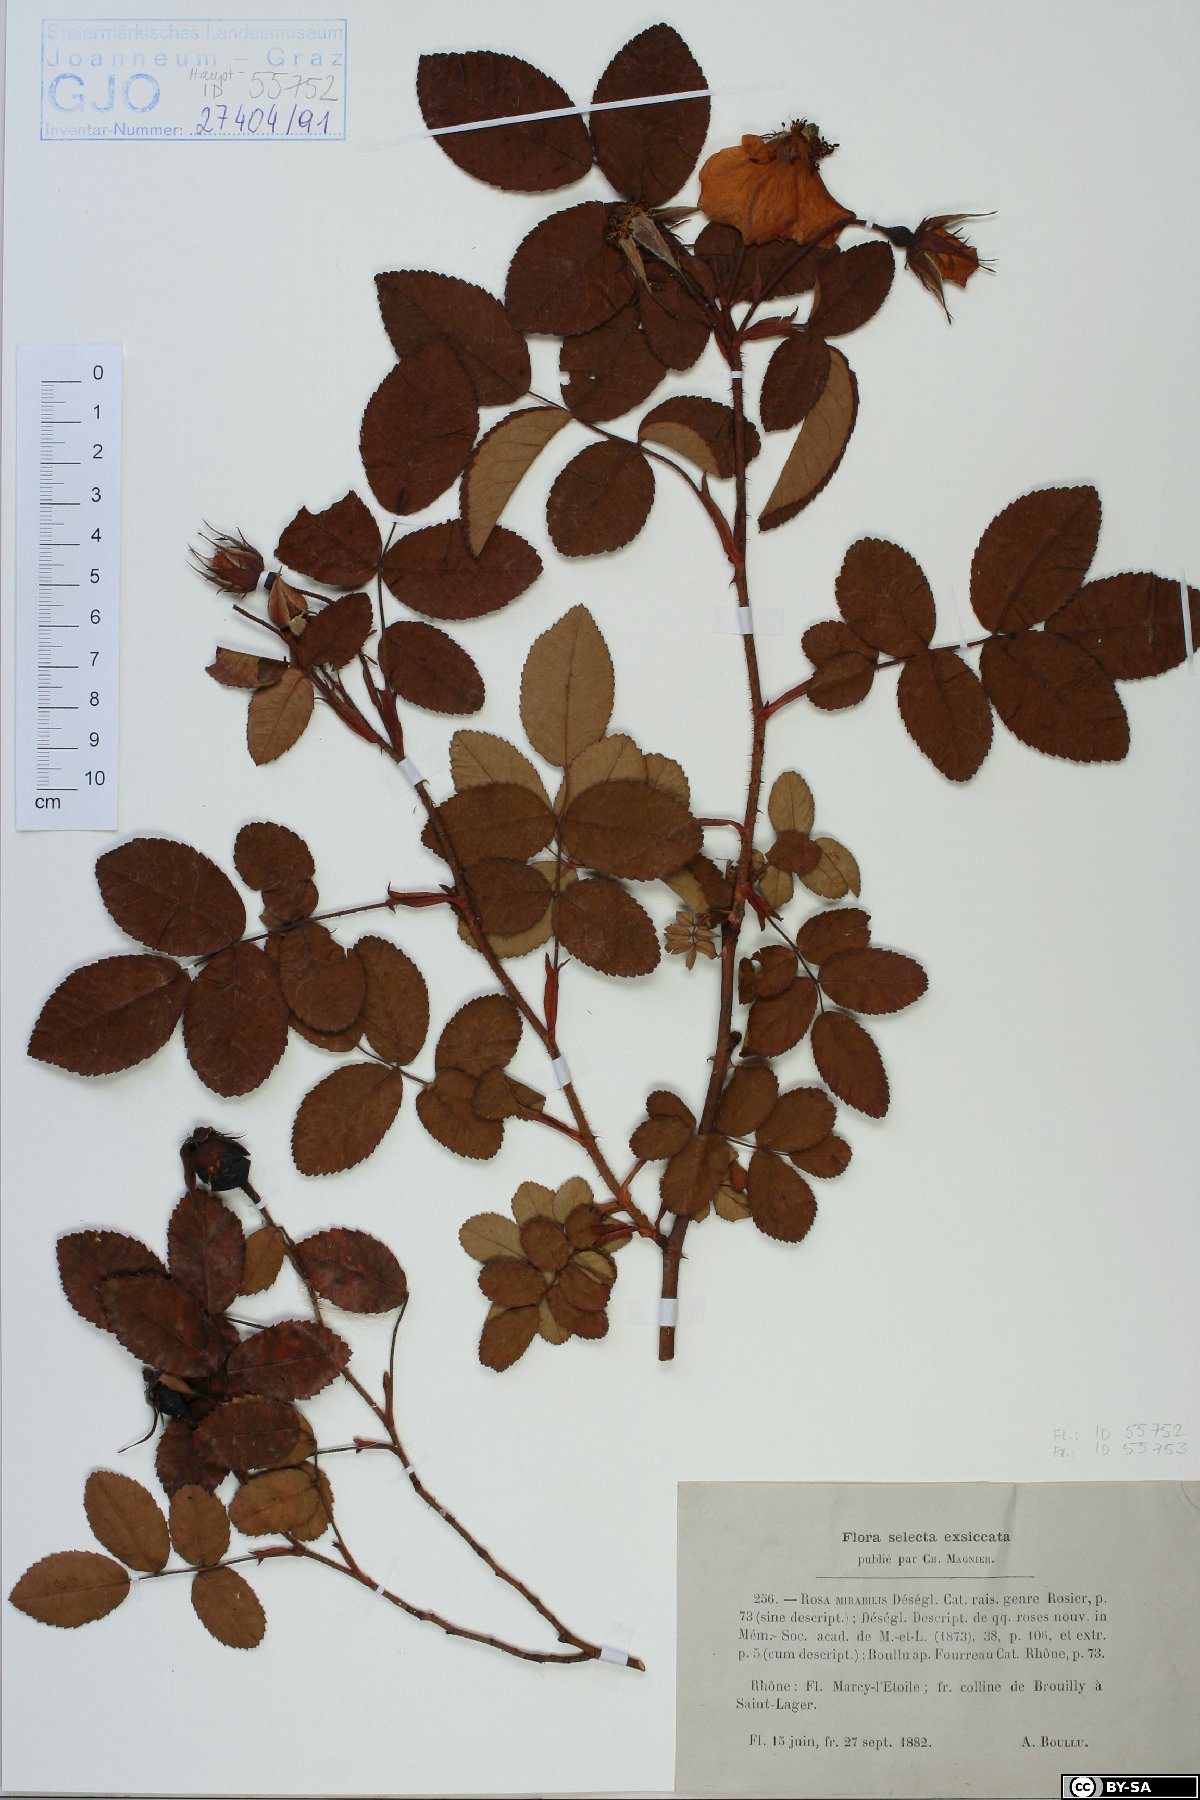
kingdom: Plantae
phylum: Tracheophyta
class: Magnoliopsida
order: Rosales
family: Rosaceae
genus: Rosa
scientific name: Rosa polliniana
